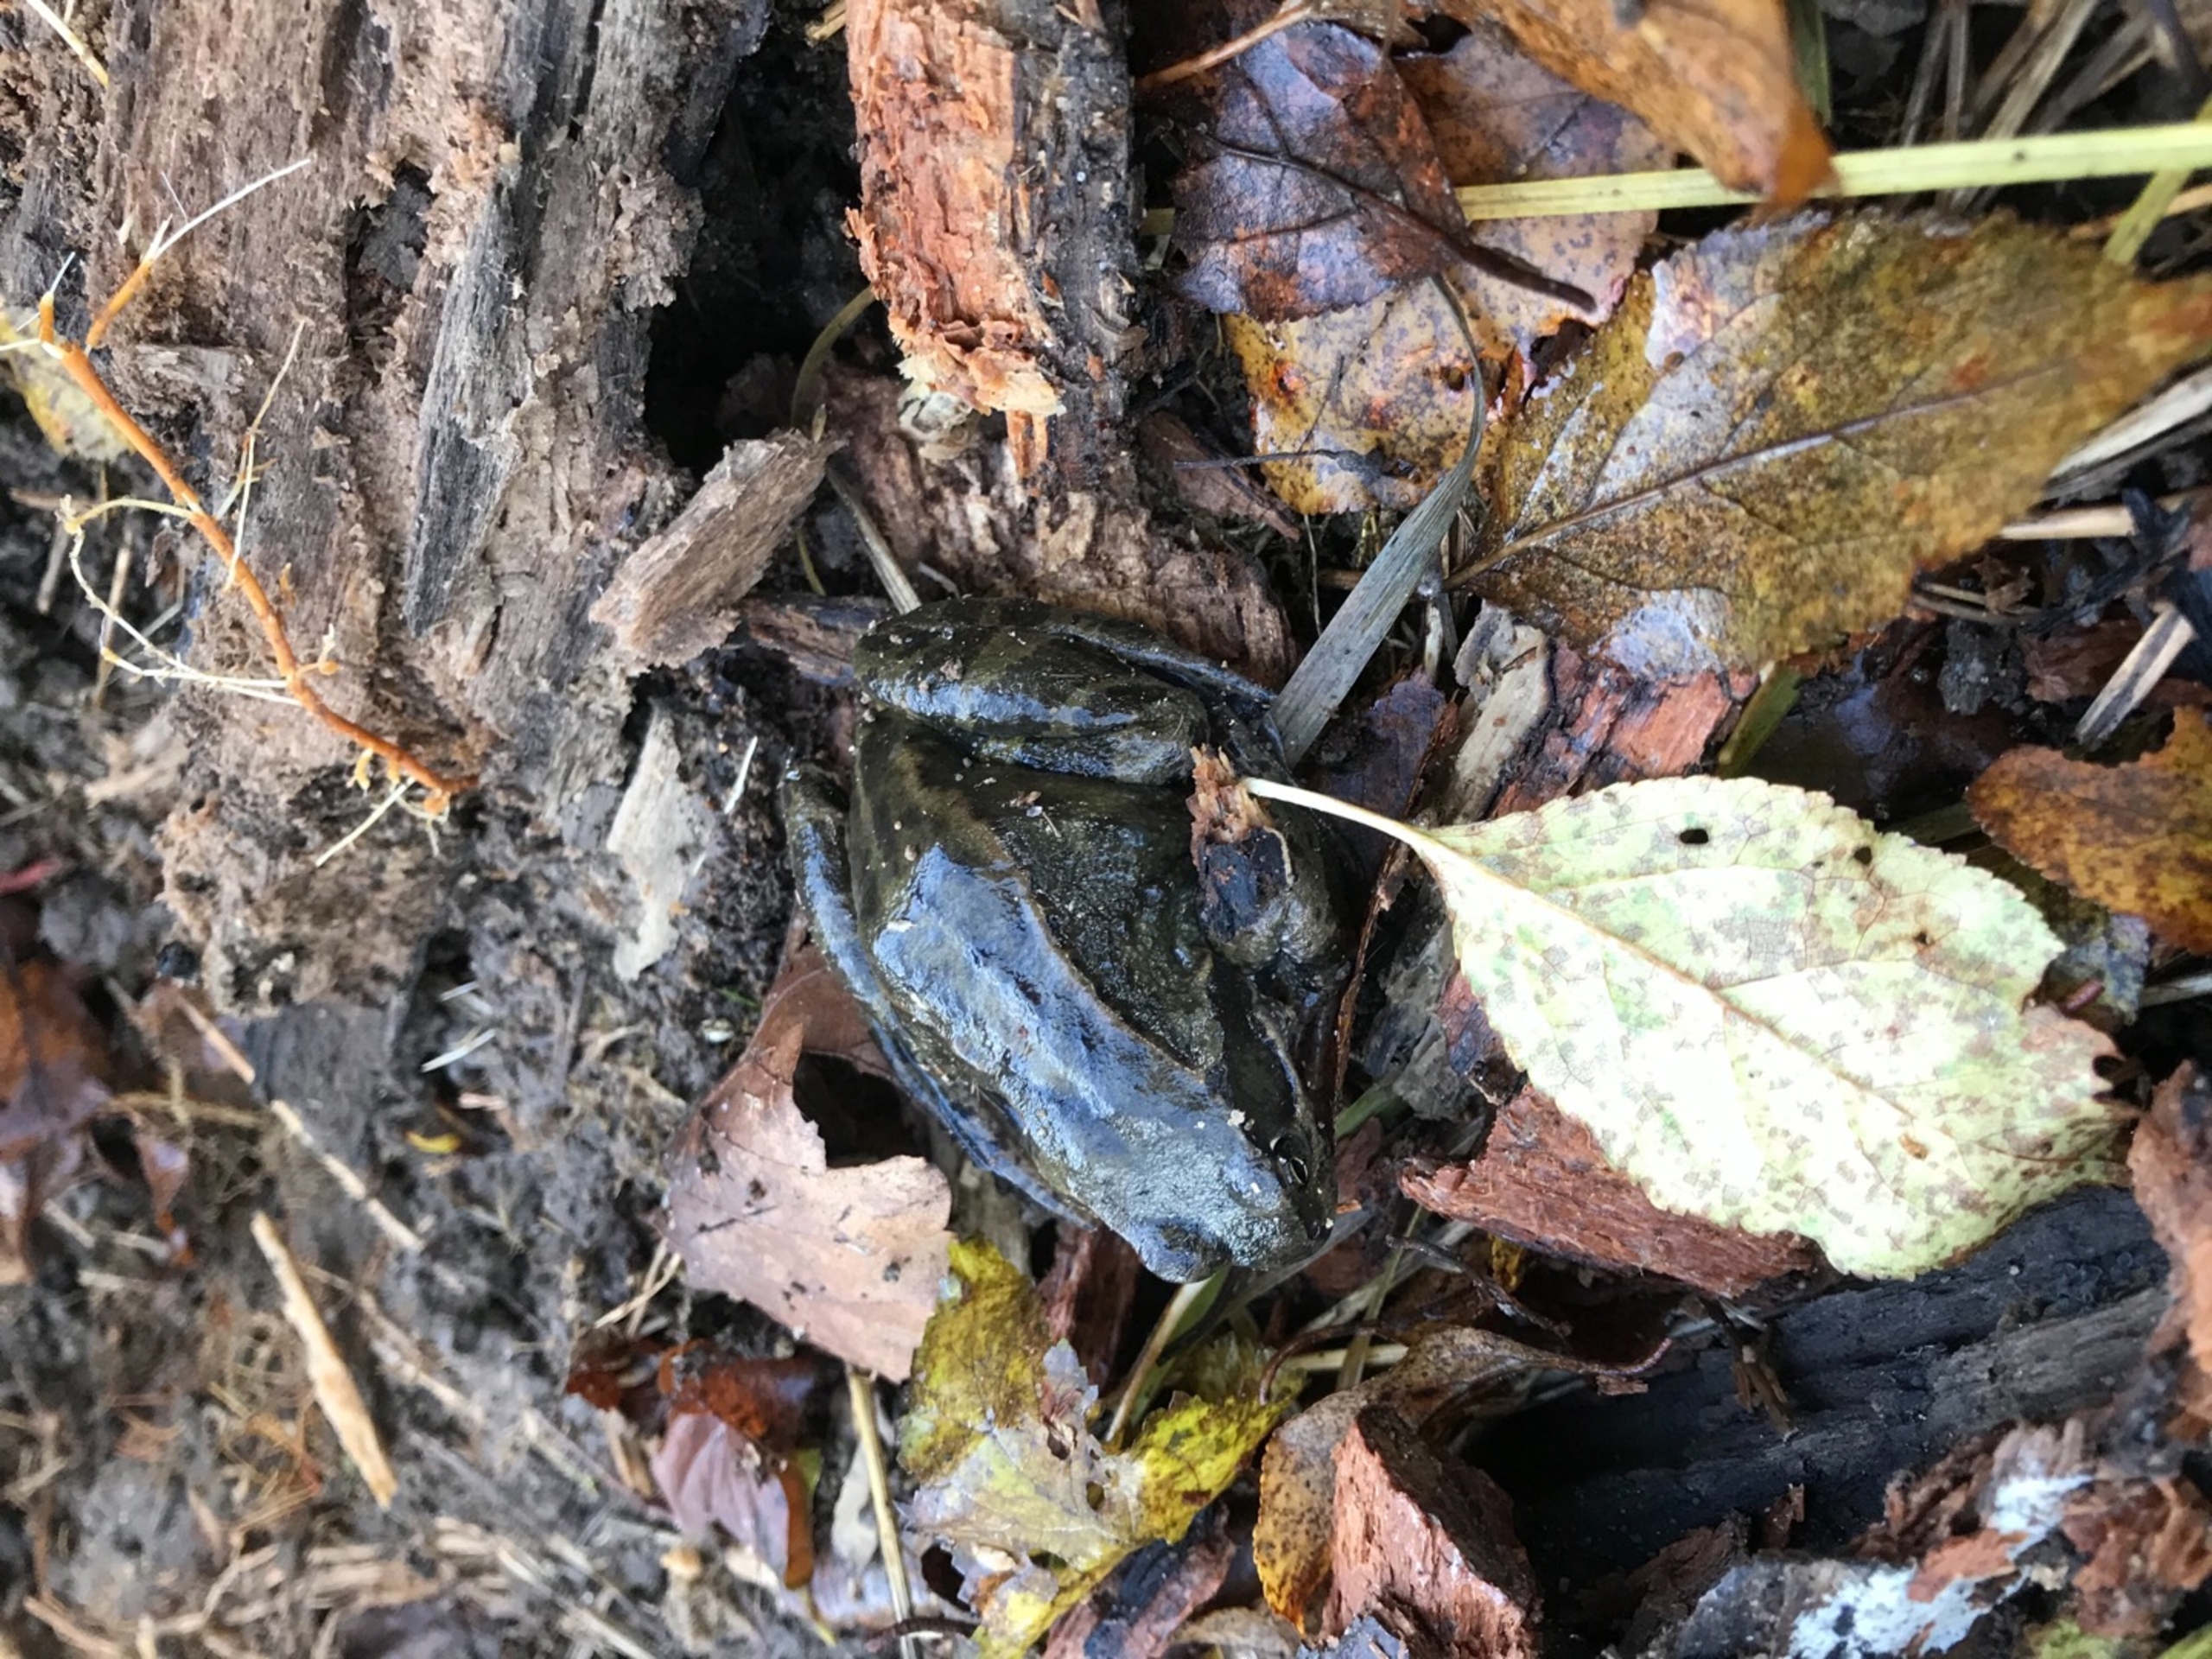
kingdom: Animalia
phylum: Chordata
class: Amphibia
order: Anura
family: Ranidae
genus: Rana
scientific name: Rana temporaria
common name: Butsnudet frø
